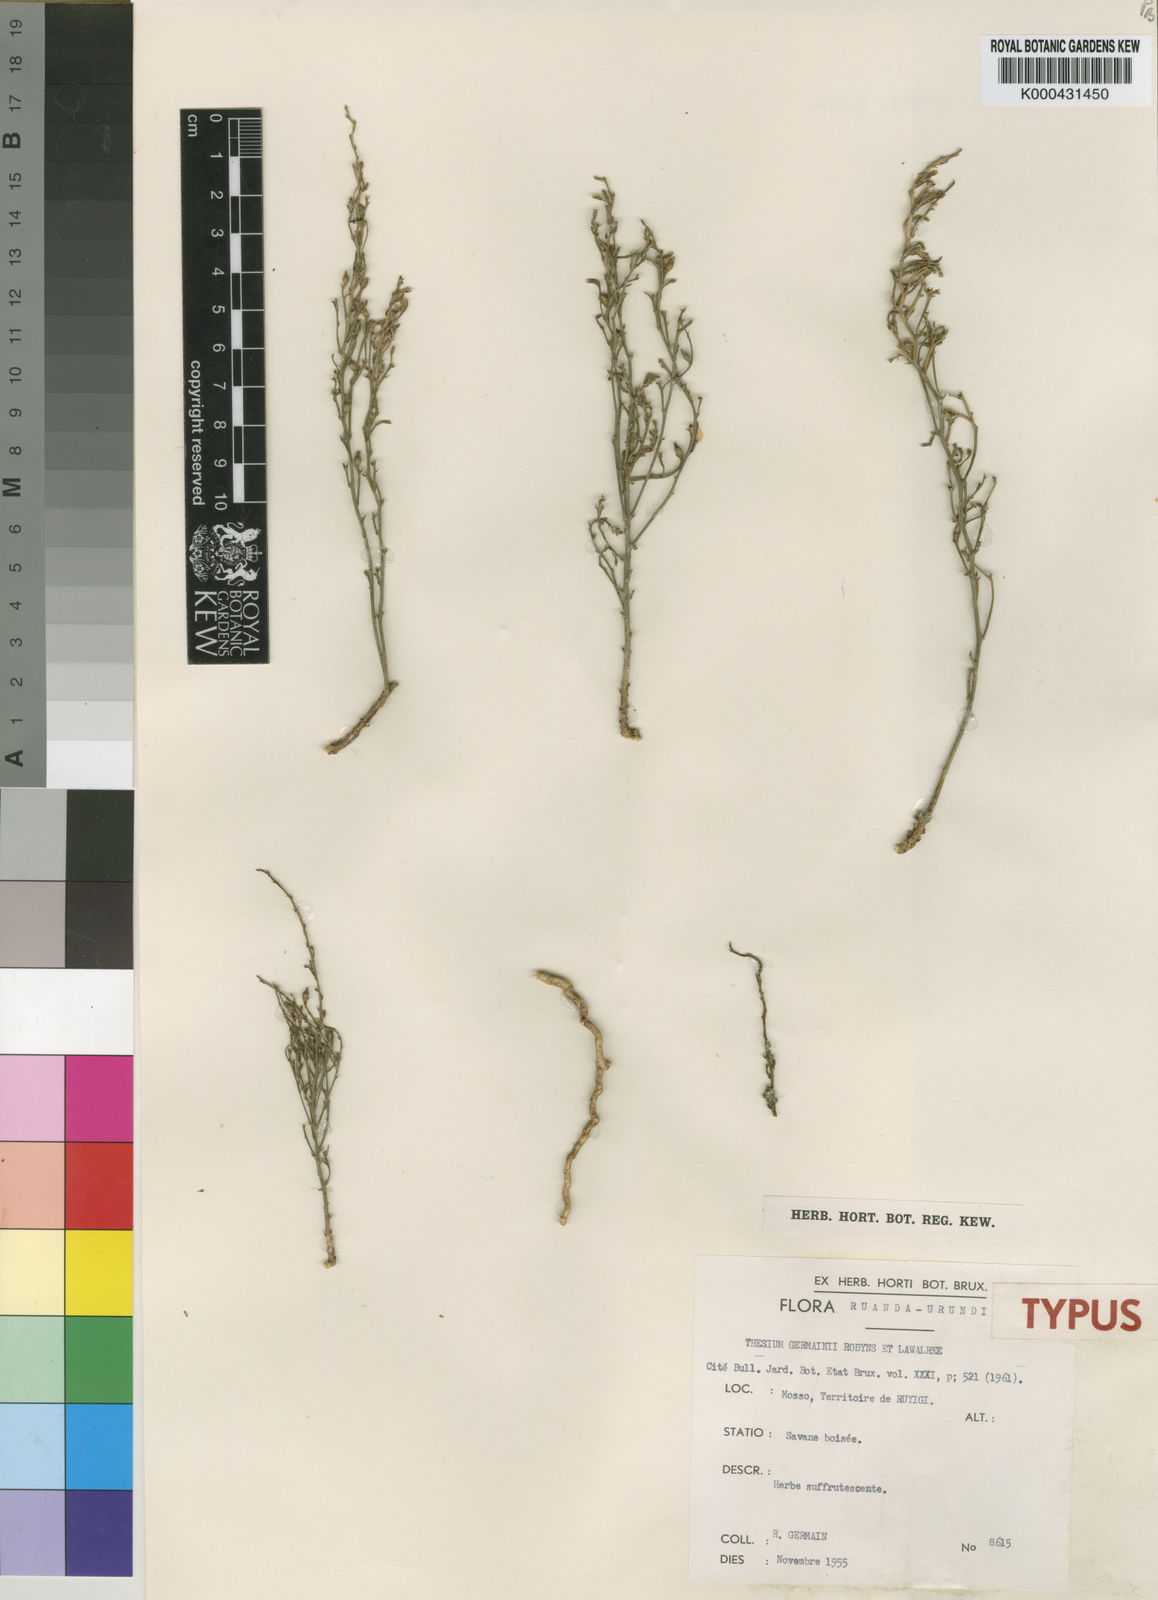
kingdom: Plantae
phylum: Tracheophyta
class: Magnoliopsida
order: Santalales
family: Thesiaceae
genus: Thesium
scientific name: Thesium
